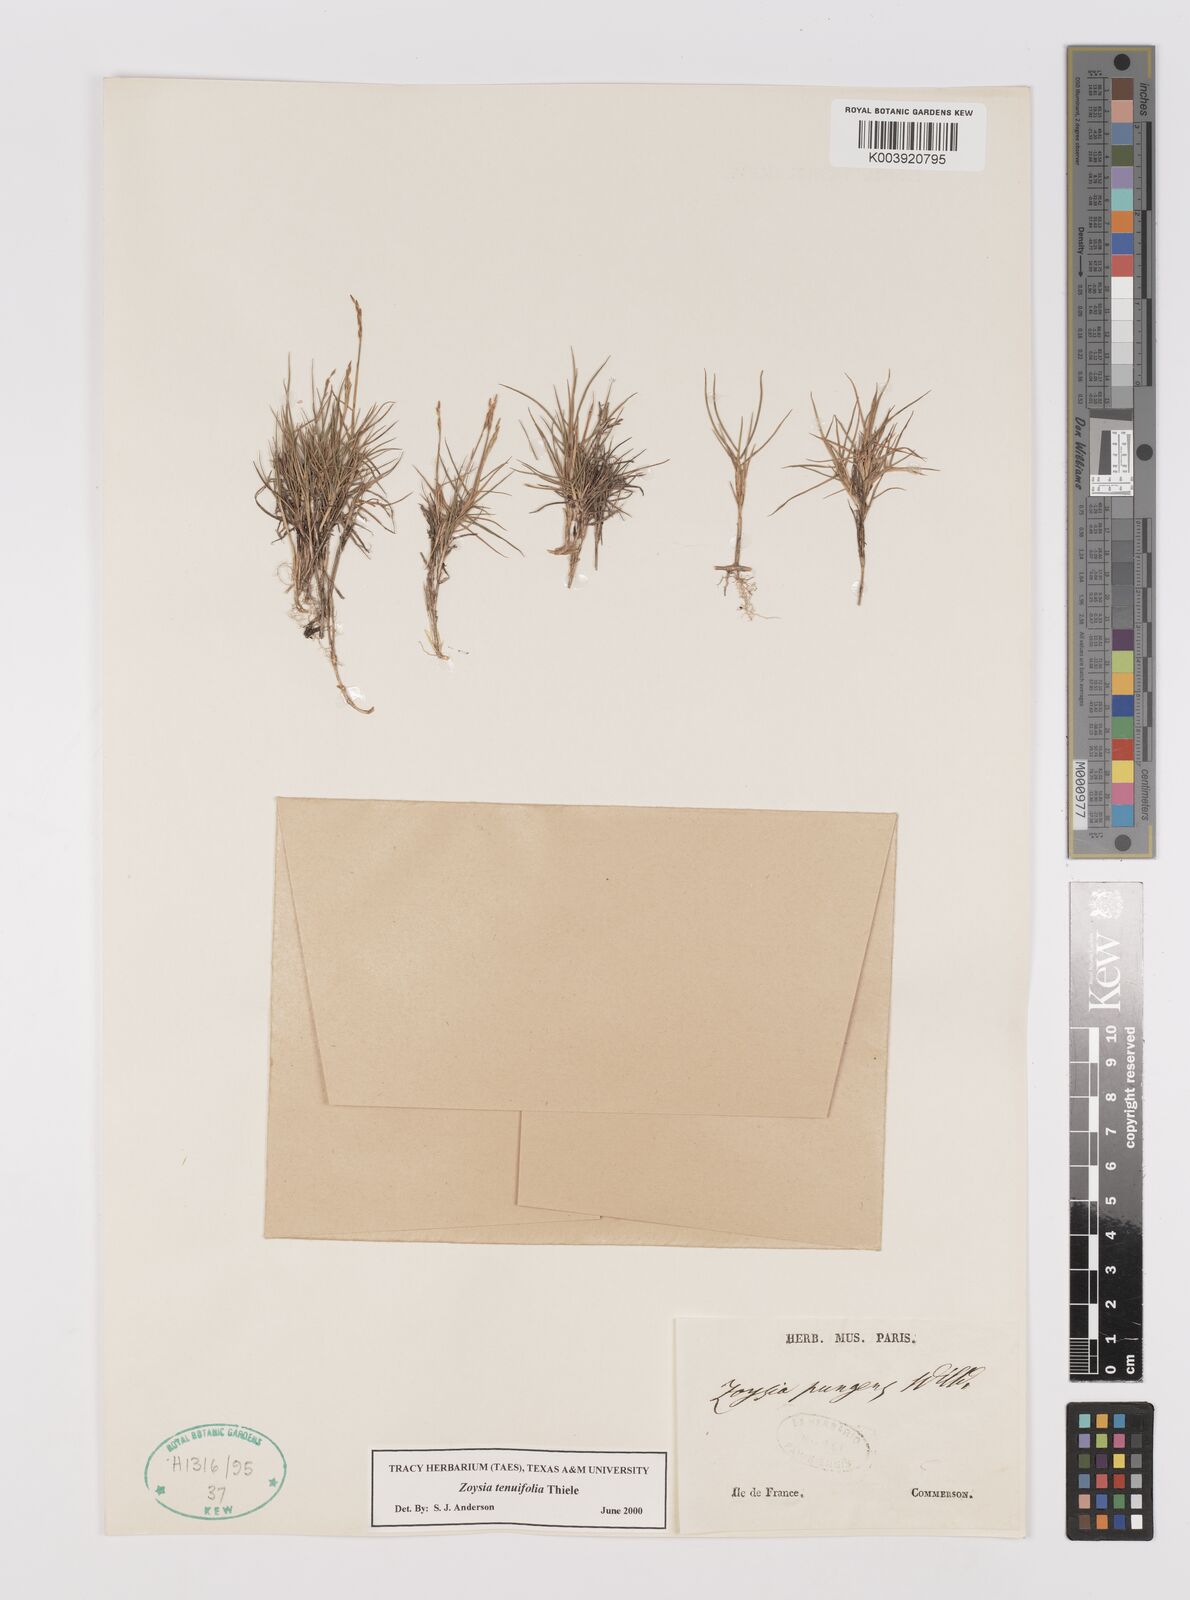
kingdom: Plantae
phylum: Tracheophyta
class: Liliopsida
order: Poales
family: Poaceae
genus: Zoysia
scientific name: Zoysia matrella
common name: Manila grass
